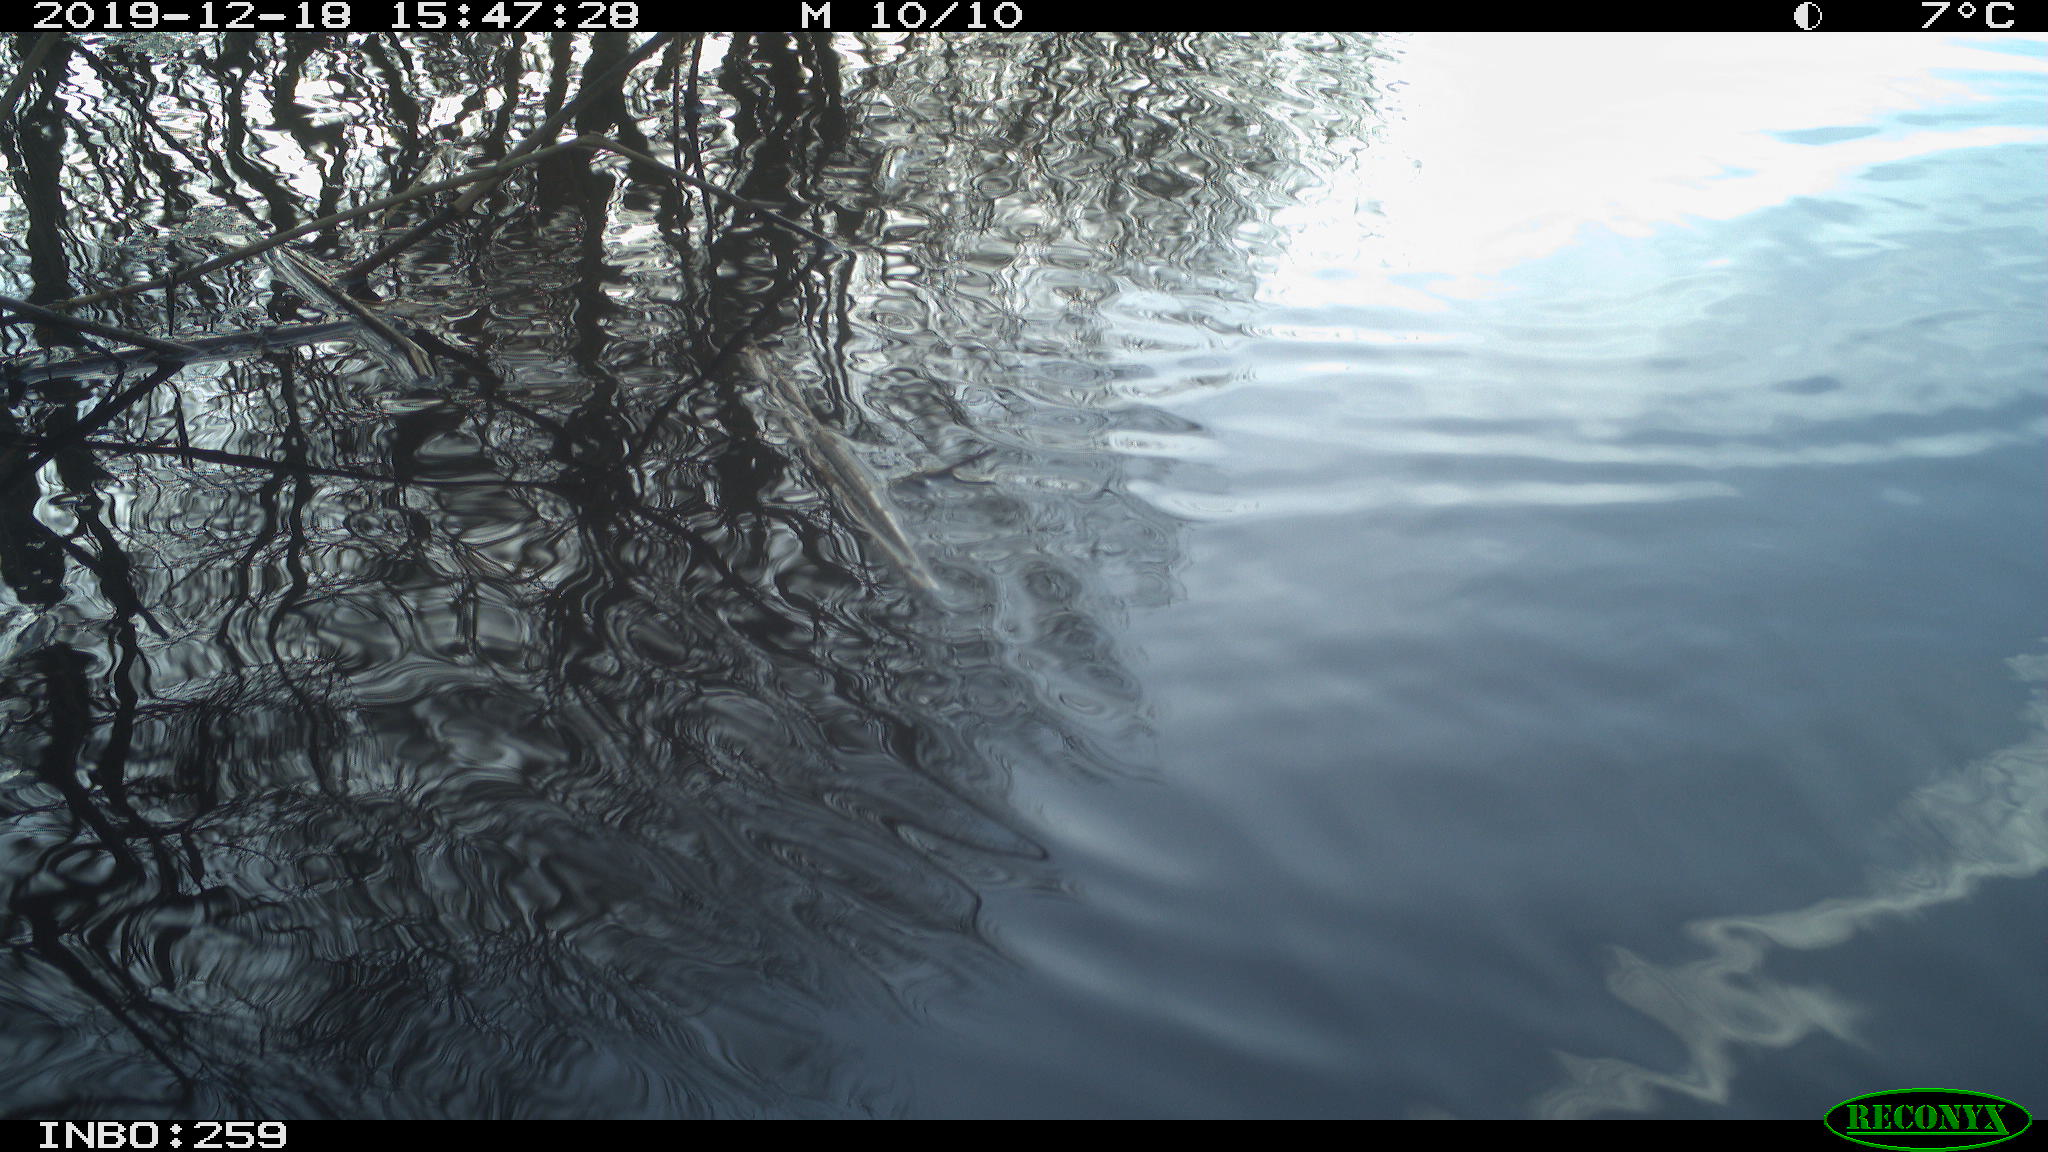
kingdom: Animalia
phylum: Chordata
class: Aves
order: Gruiformes
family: Rallidae
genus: Gallinula
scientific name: Gallinula chloropus
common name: Common moorhen
